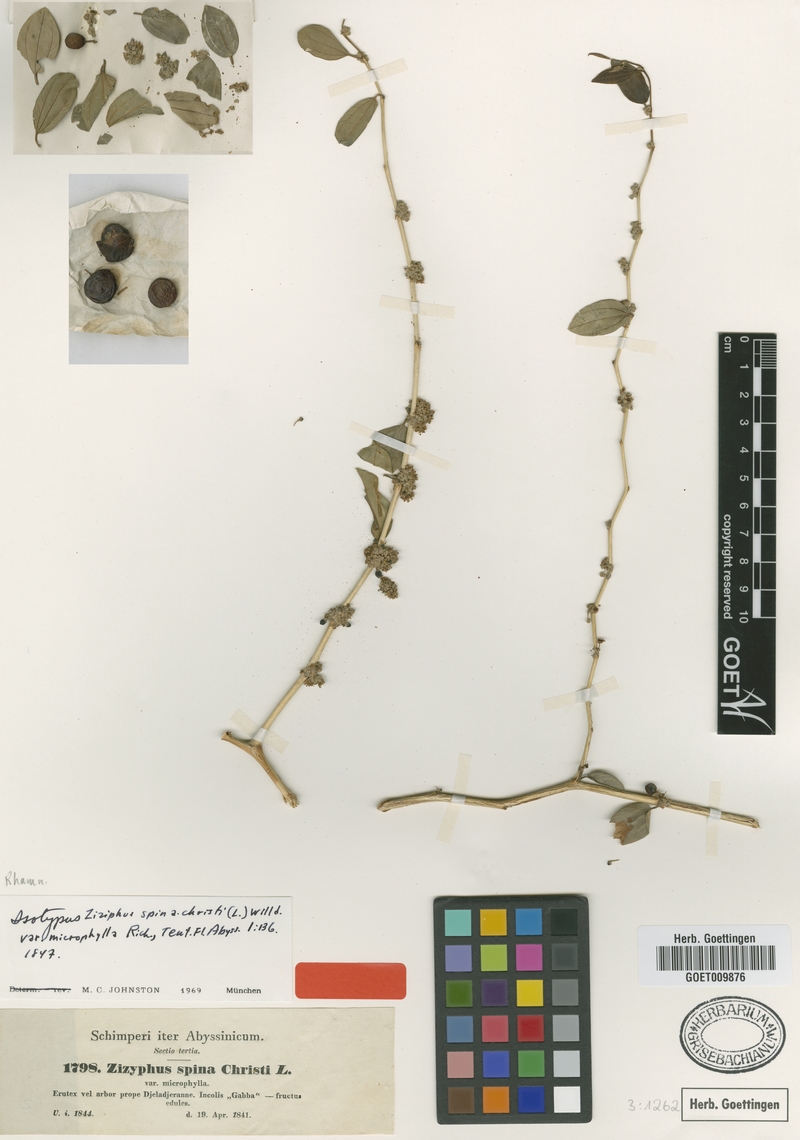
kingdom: Plantae
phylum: Tracheophyta
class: Magnoliopsida
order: Rosales
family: Rhamnaceae
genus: Ziziphus
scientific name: Ziziphus spina-christi
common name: Syrian christ-thorn
